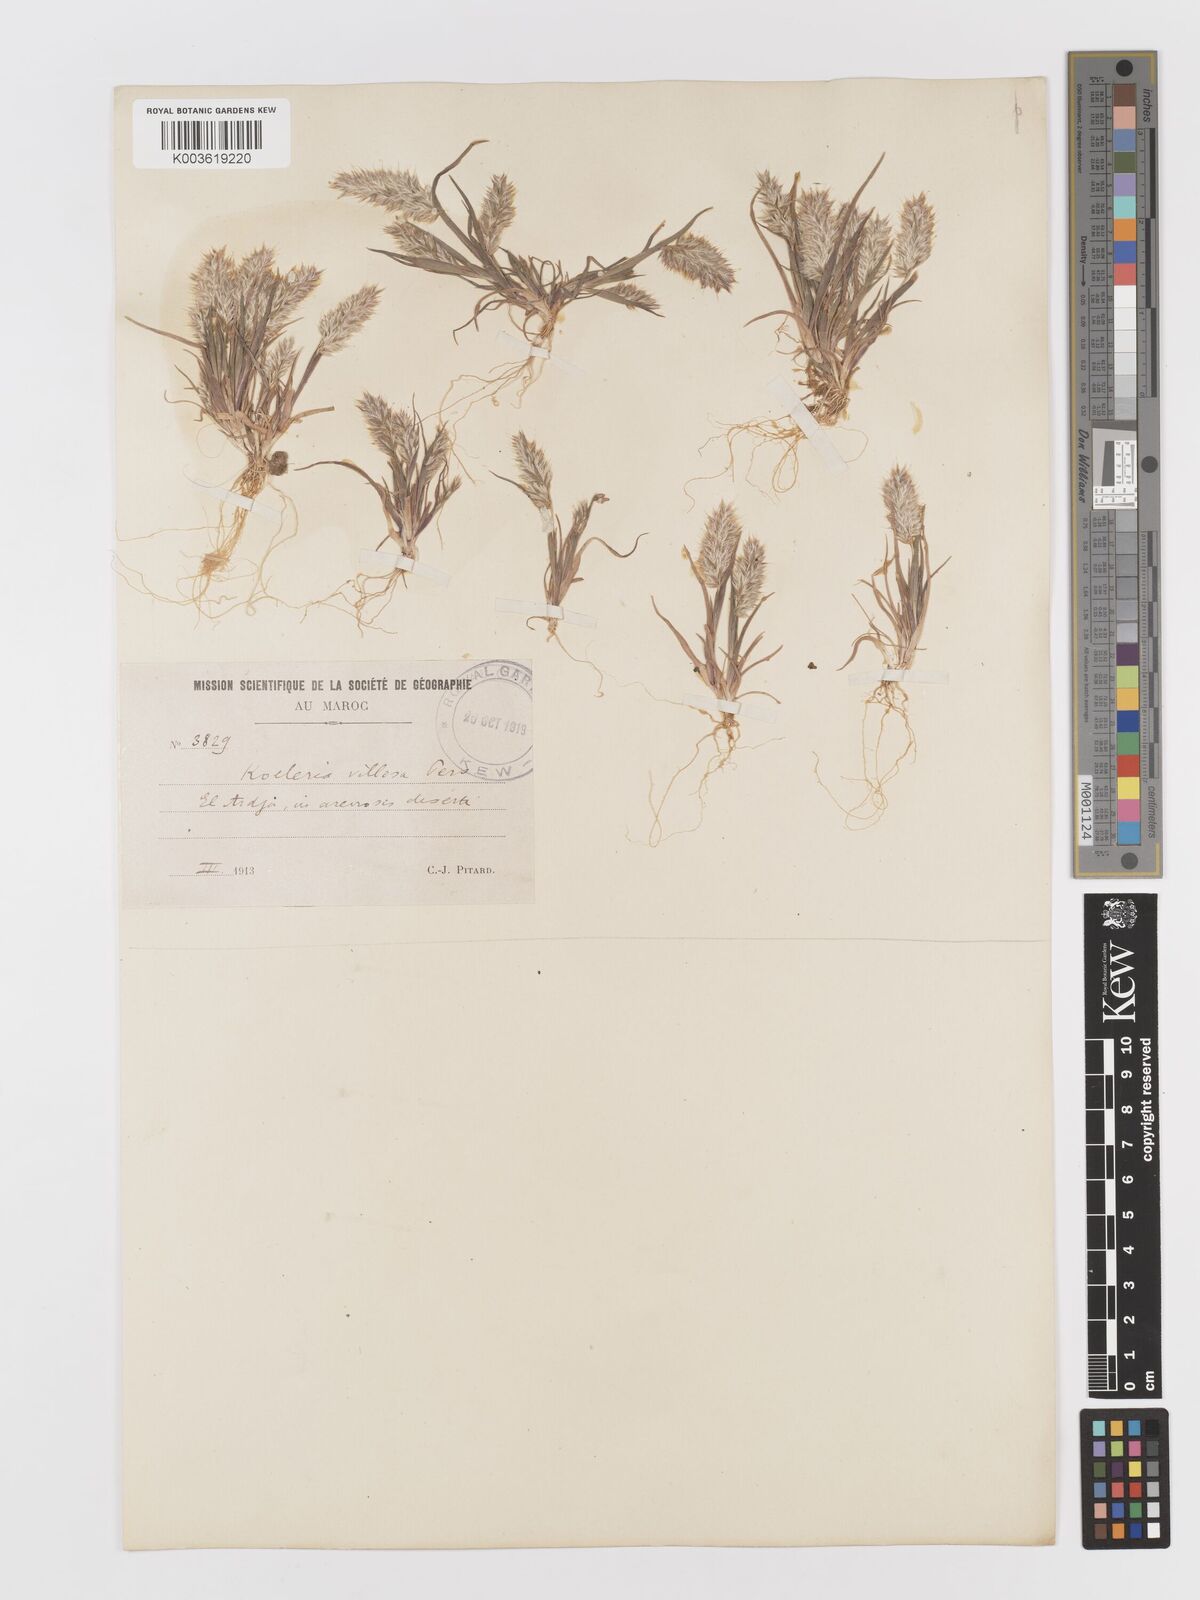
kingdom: Plantae
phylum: Tracheophyta
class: Liliopsida
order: Poales
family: Poaceae
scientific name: Poaceae
